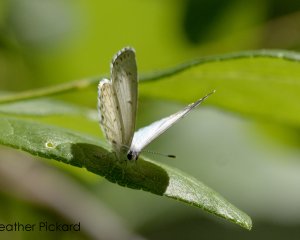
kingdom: Animalia
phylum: Arthropoda
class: Insecta
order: Lepidoptera
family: Lycaenidae
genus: Cyaniris
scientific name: Cyaniris neglecta
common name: Summer Azure
